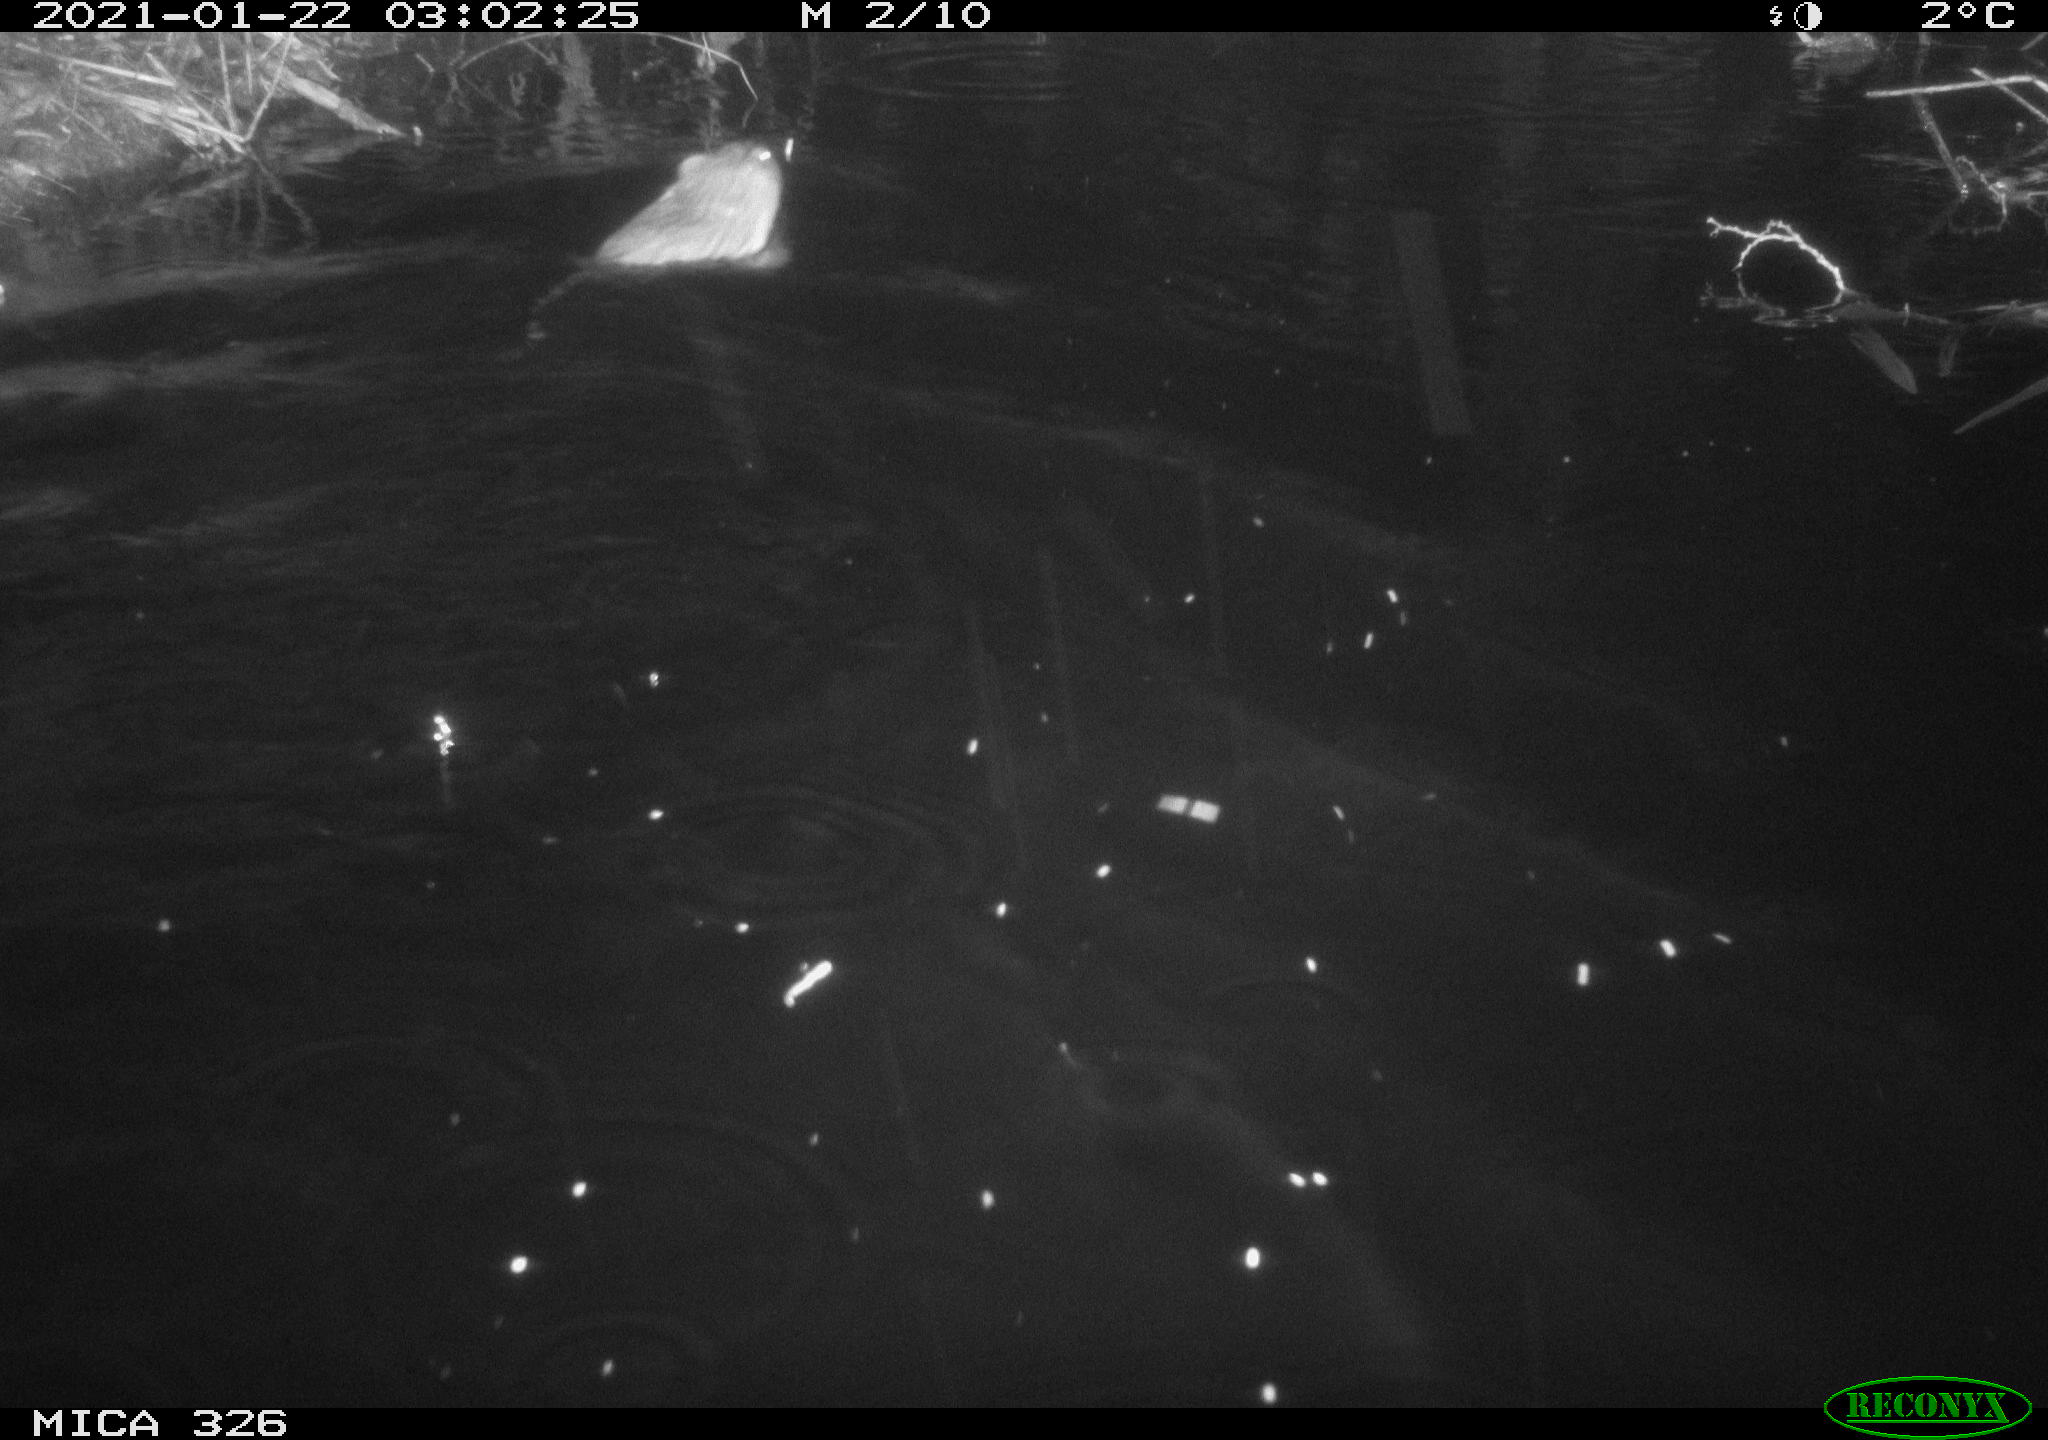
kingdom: Animalia
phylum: Chordata
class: Mammalia
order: Rodentia
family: Cricetidae
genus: Ondatra
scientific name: Ondatra zibethicus
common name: Muskrat
